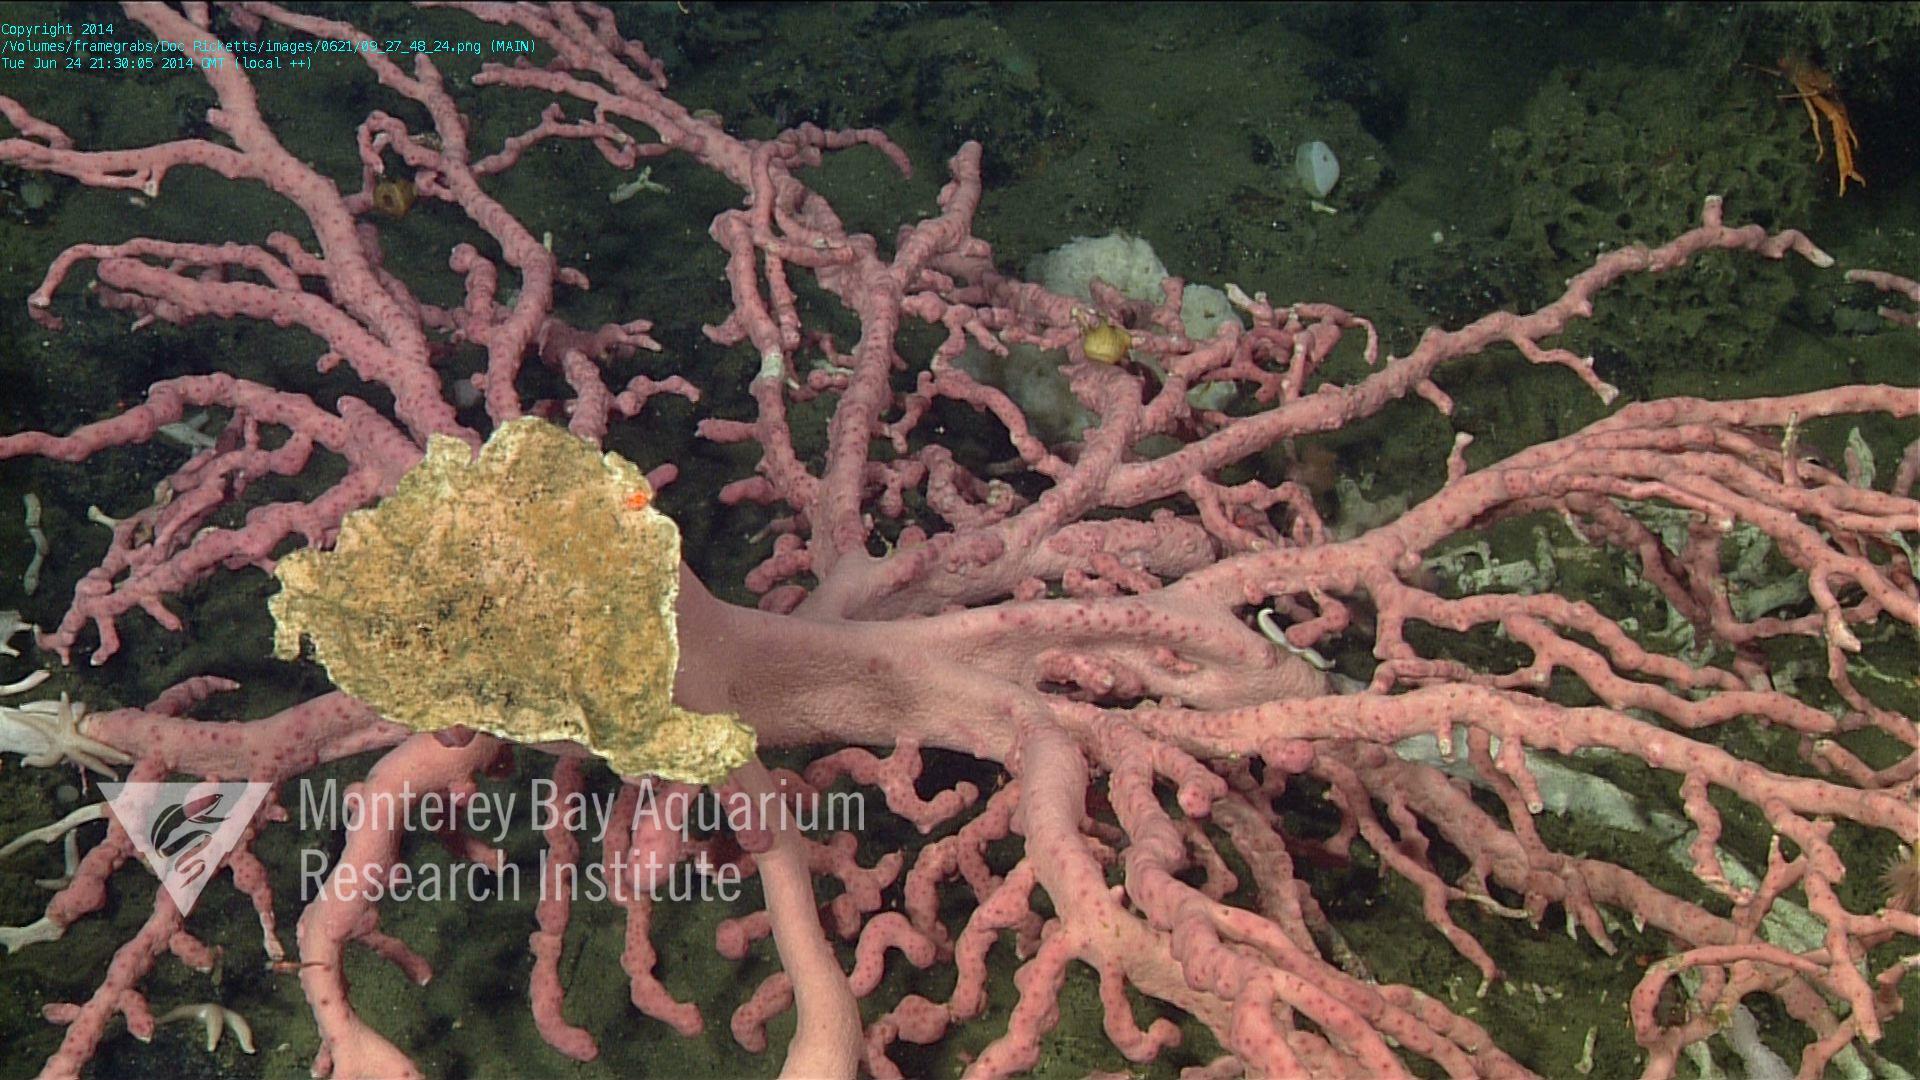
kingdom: Animalia
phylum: Cnidaria
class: Anthozoa
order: Scleralcyonacea
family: Coralliidae
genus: Paragorgia
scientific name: Paragorgia arborea
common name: Bubble gum coral
